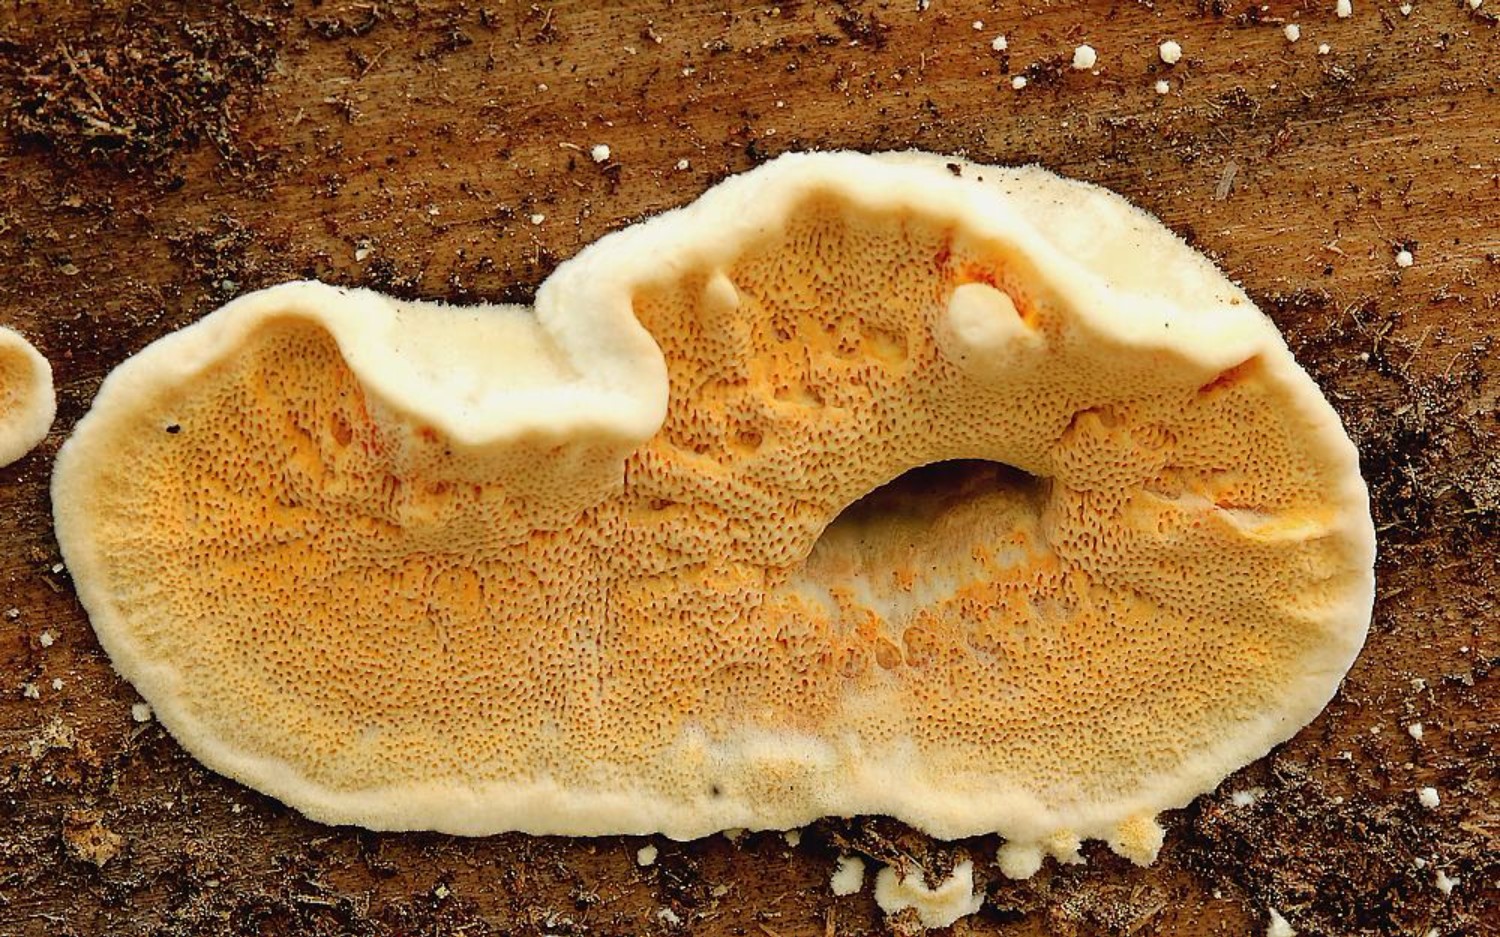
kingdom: Fungi
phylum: Basidiomycota
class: Agaricomycetes
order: Polyporales
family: Incrustoporiaceae
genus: Skeletocutis
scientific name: Skeletocutis amorpha
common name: orange krystalporesvamp
